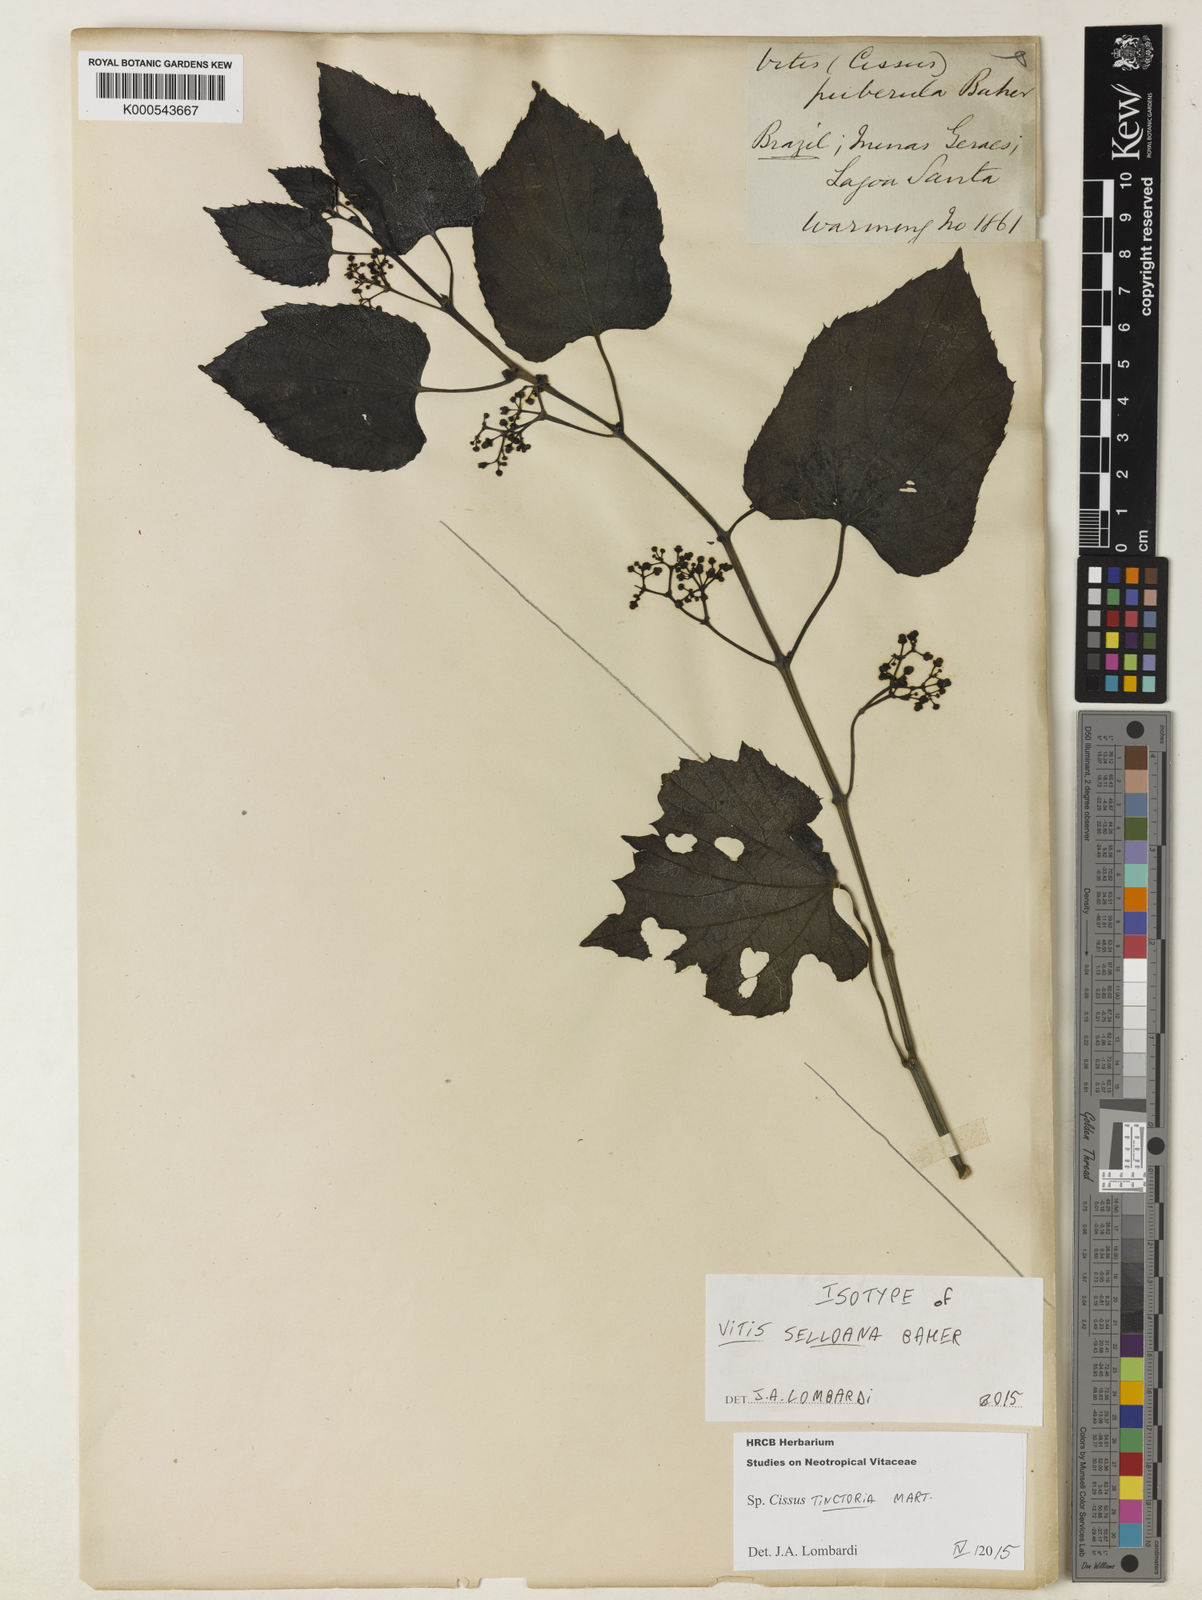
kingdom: Plantae
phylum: Tracheophyta
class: Magnoliopsida
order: Vitales
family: Vitaceae
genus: Cissus
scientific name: Cissus tinctoria
